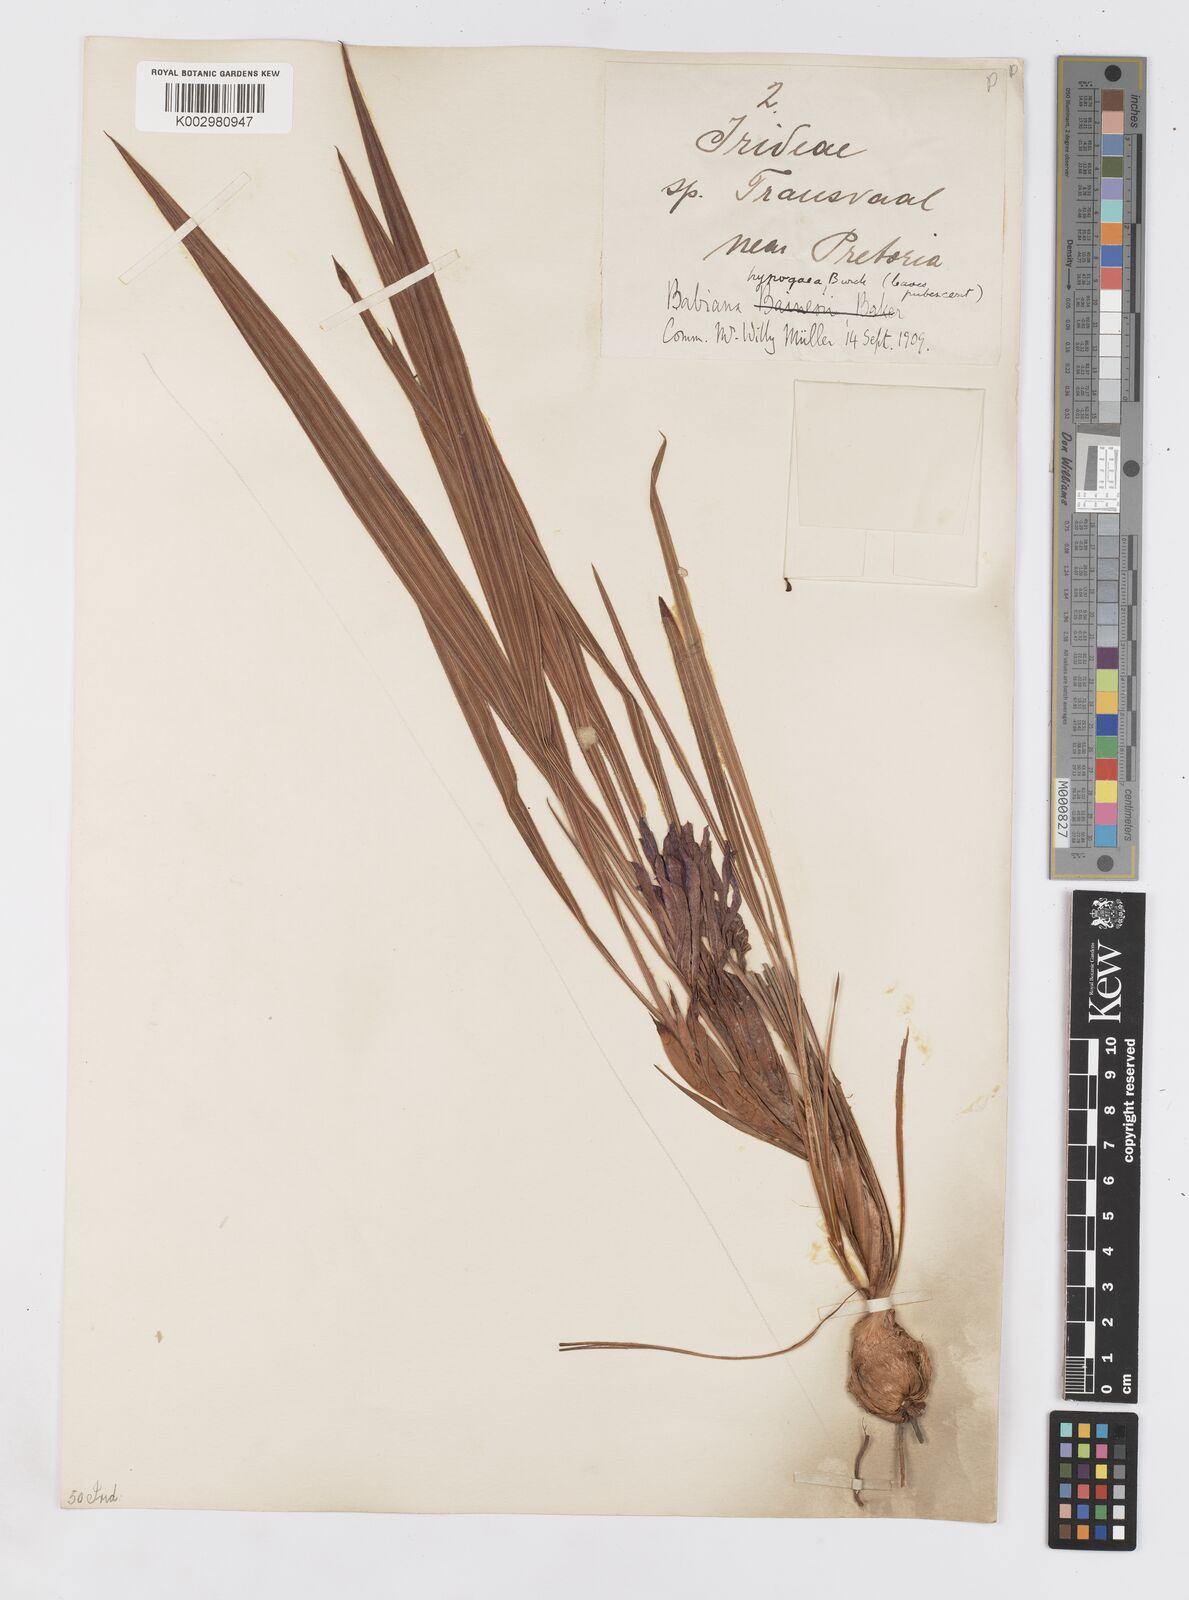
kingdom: Plantae
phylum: Tracheophyta
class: Liliopsida
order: Asparagales
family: Iridaceae
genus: Babiana
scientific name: Babiana bainesii
